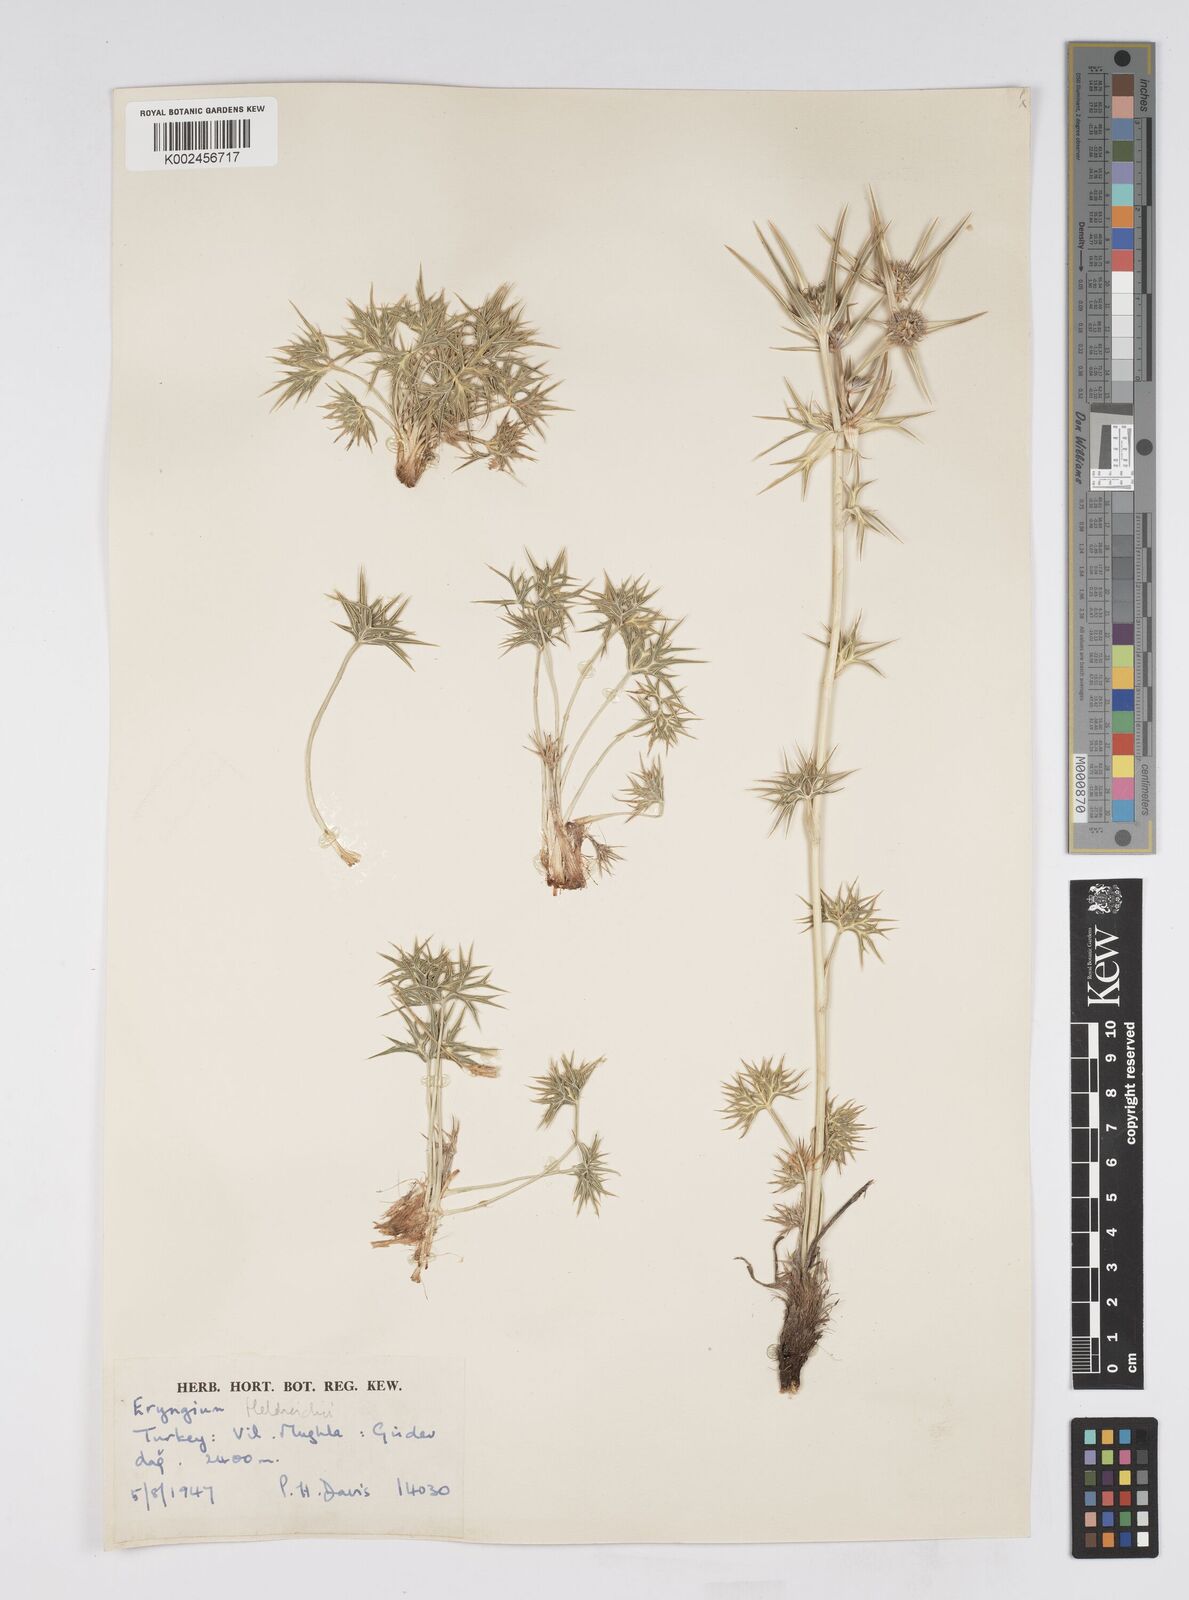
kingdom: Plantae
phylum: Tracheophyta
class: Magnoliopsida
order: Apiales
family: Apiaceae
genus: Eryngium
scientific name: Eryngium heldreichii
